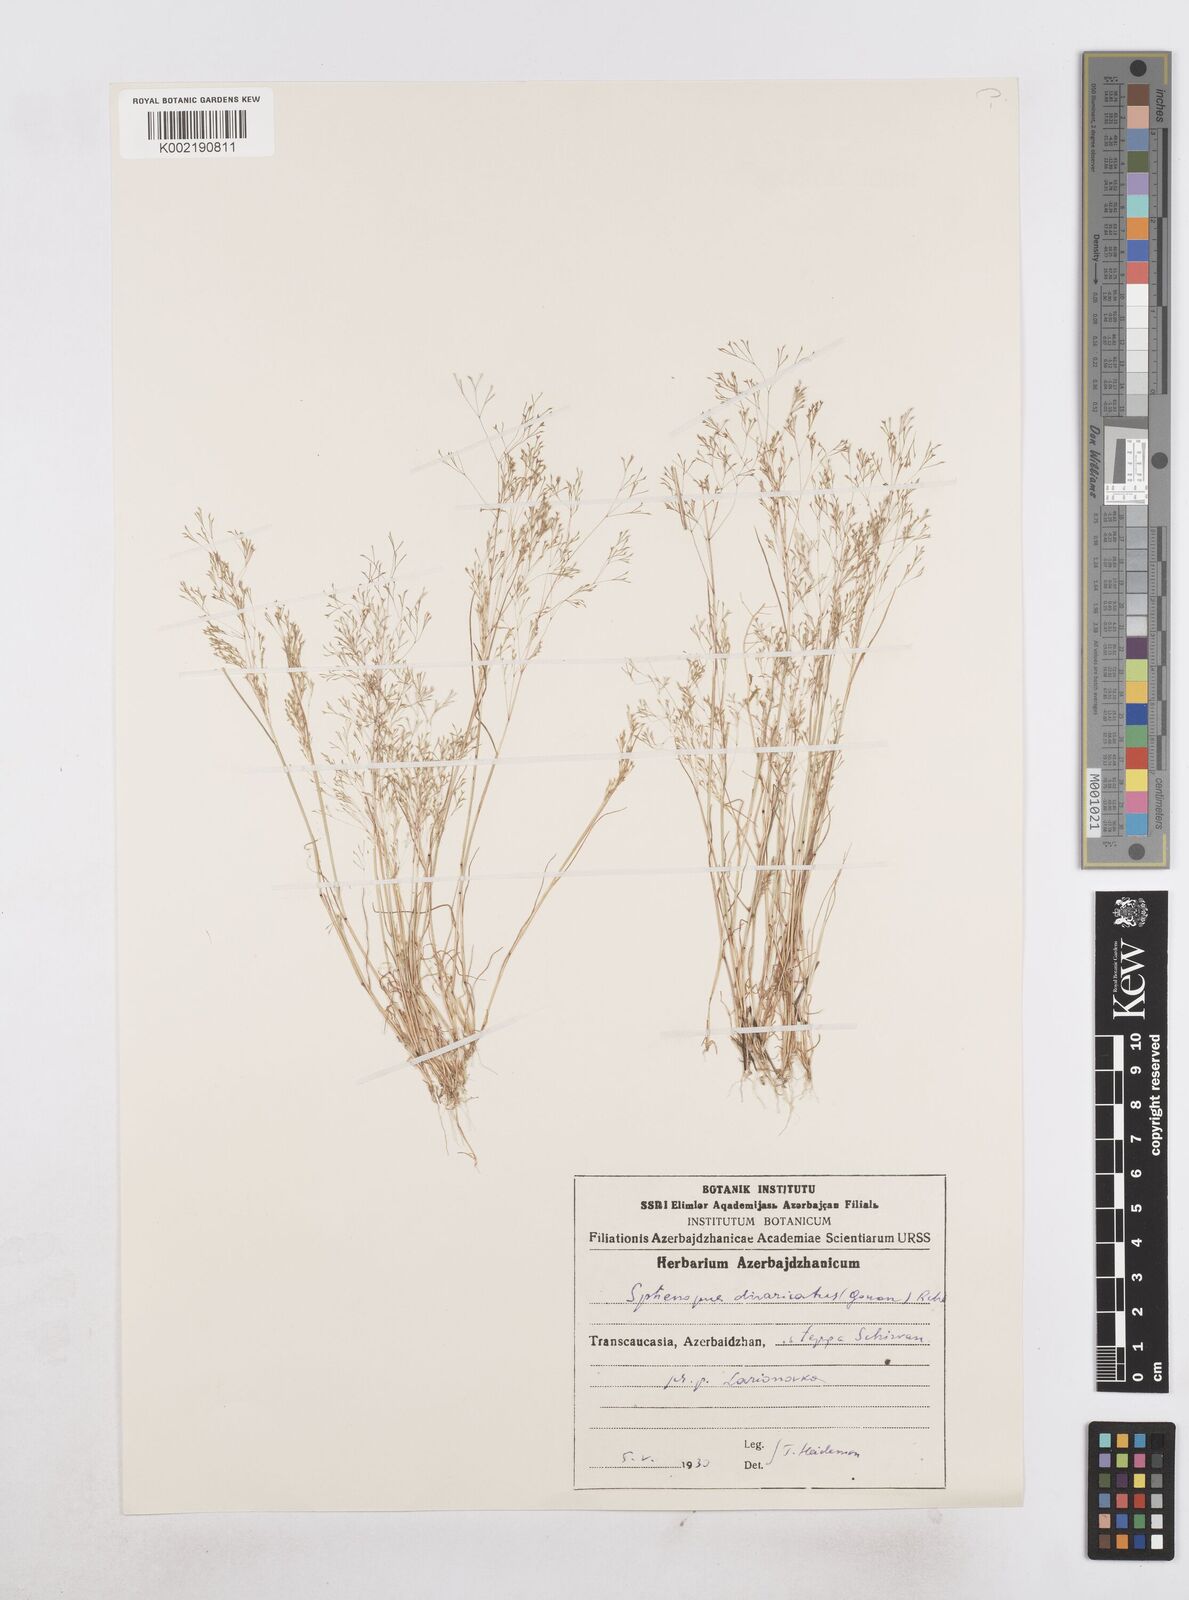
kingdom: Plantae
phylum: Tracheophyta
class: Liliopsida
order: Poales
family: Poaceae
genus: Sphenopus
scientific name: Sphenopus divaricatus
